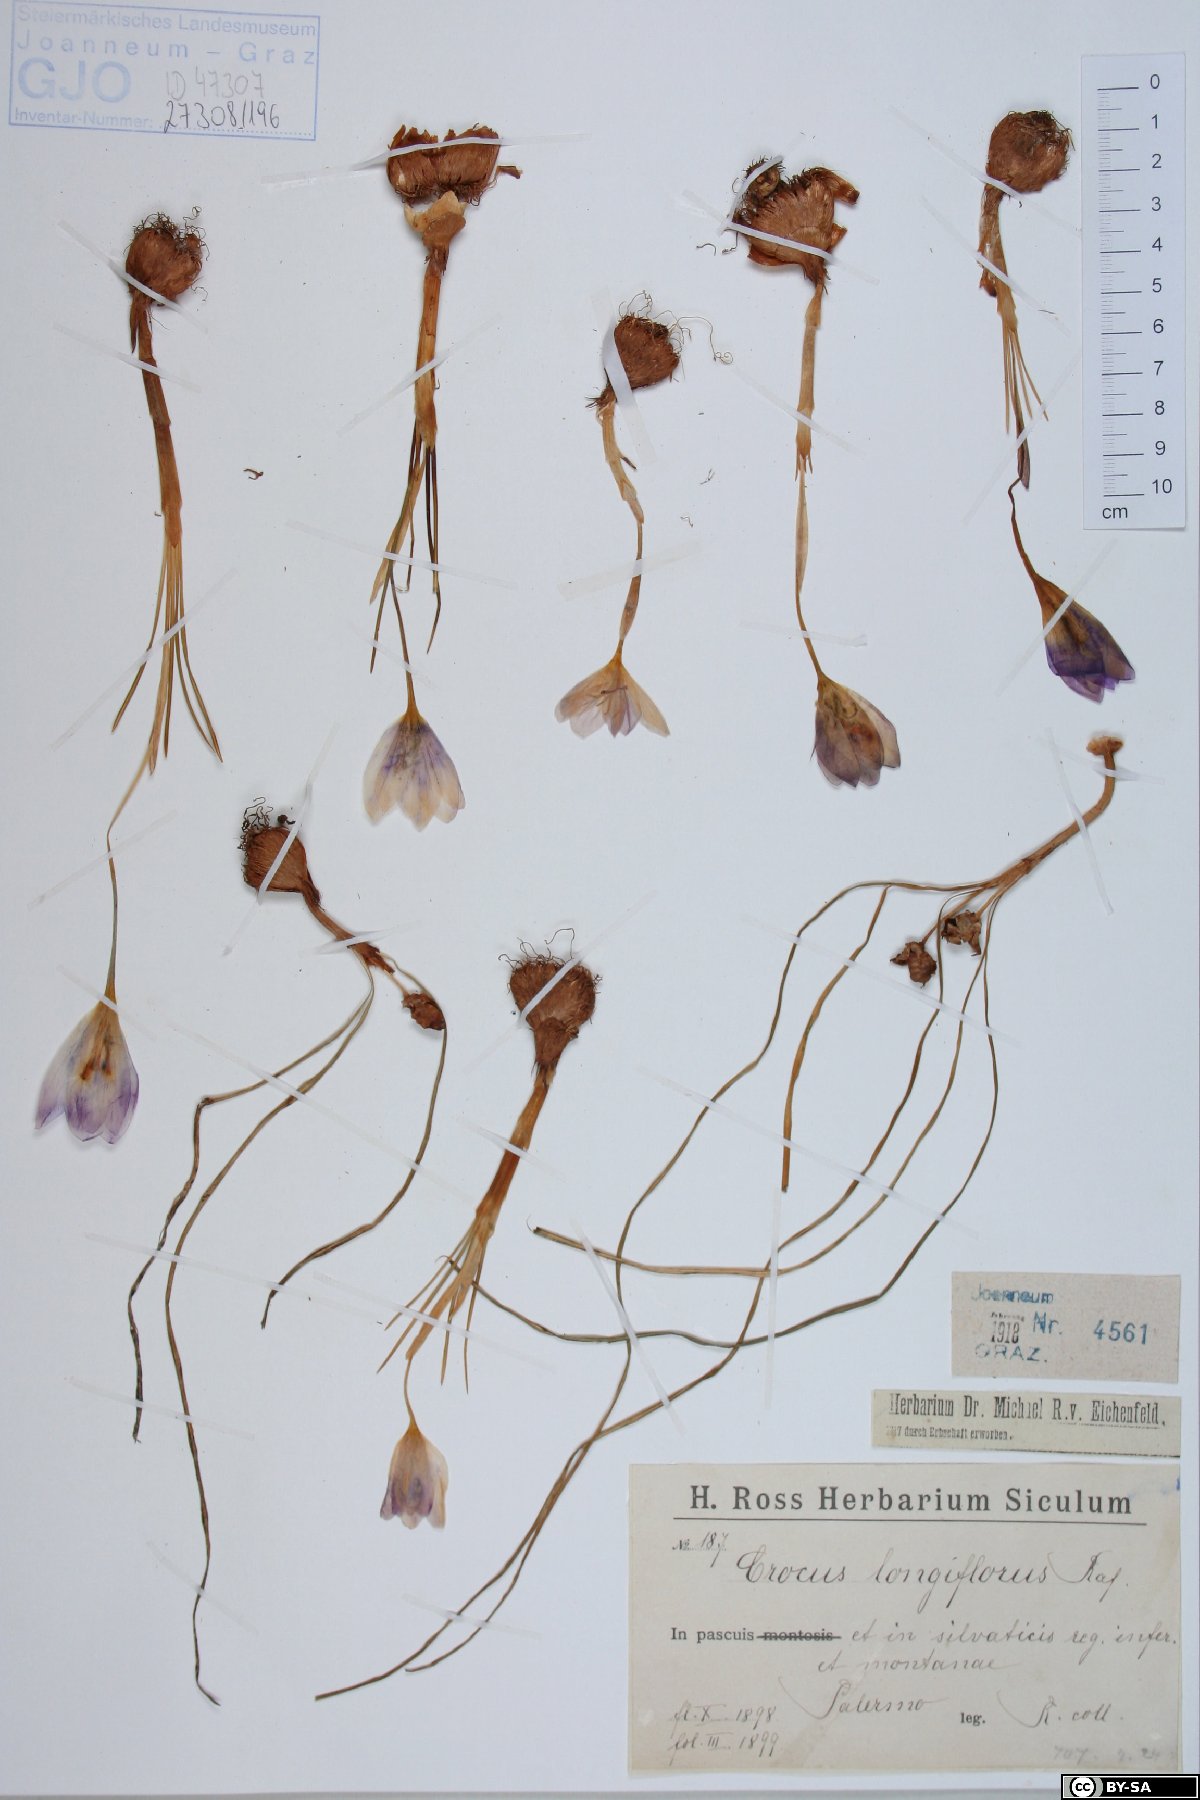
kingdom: Plantae
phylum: Tracheophyta
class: Liliopsida
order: Asparagales
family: Iridaceae
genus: Crocus
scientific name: Crocus longiflorus
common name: Italian crocus
